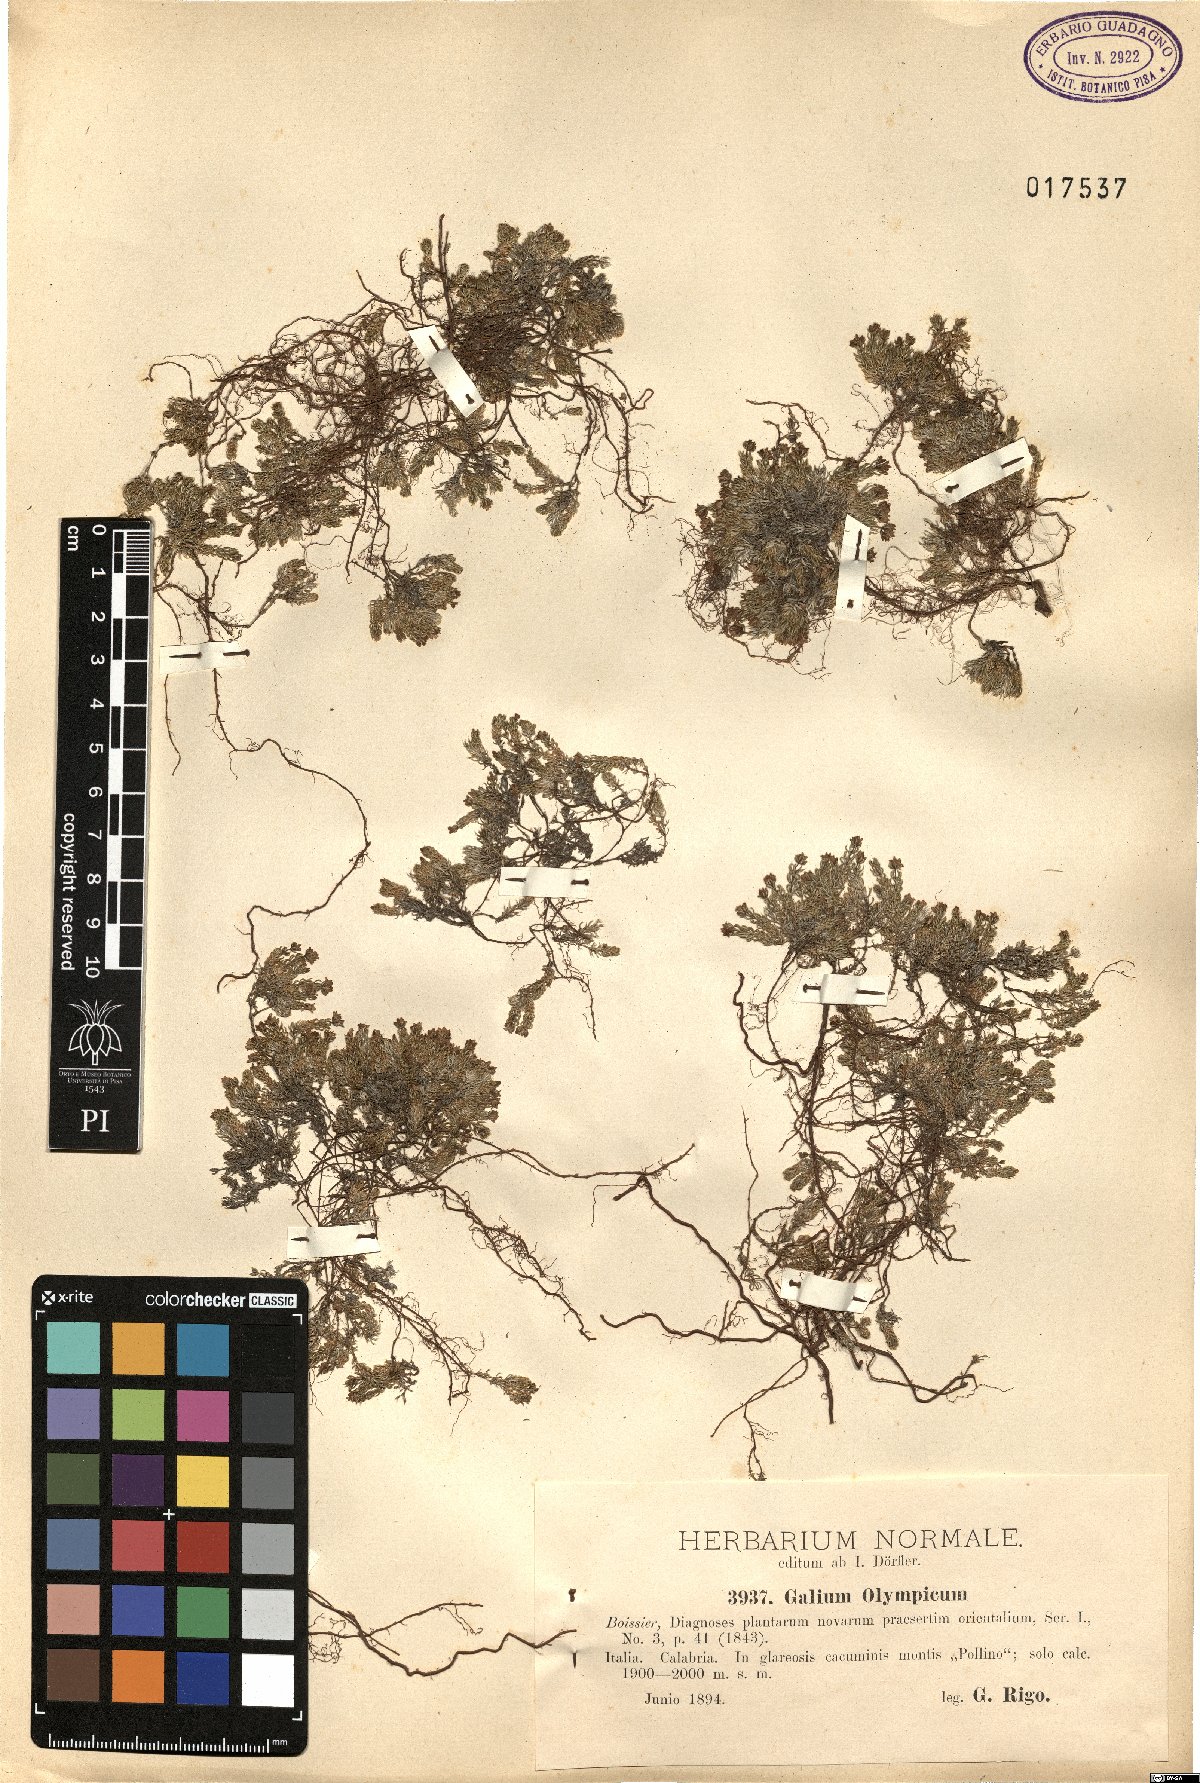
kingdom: Plantae
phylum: Tracheophyta
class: Magnoliopsida
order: Gentianales
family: Rubiaceae
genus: Galium
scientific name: Galium olympicum
